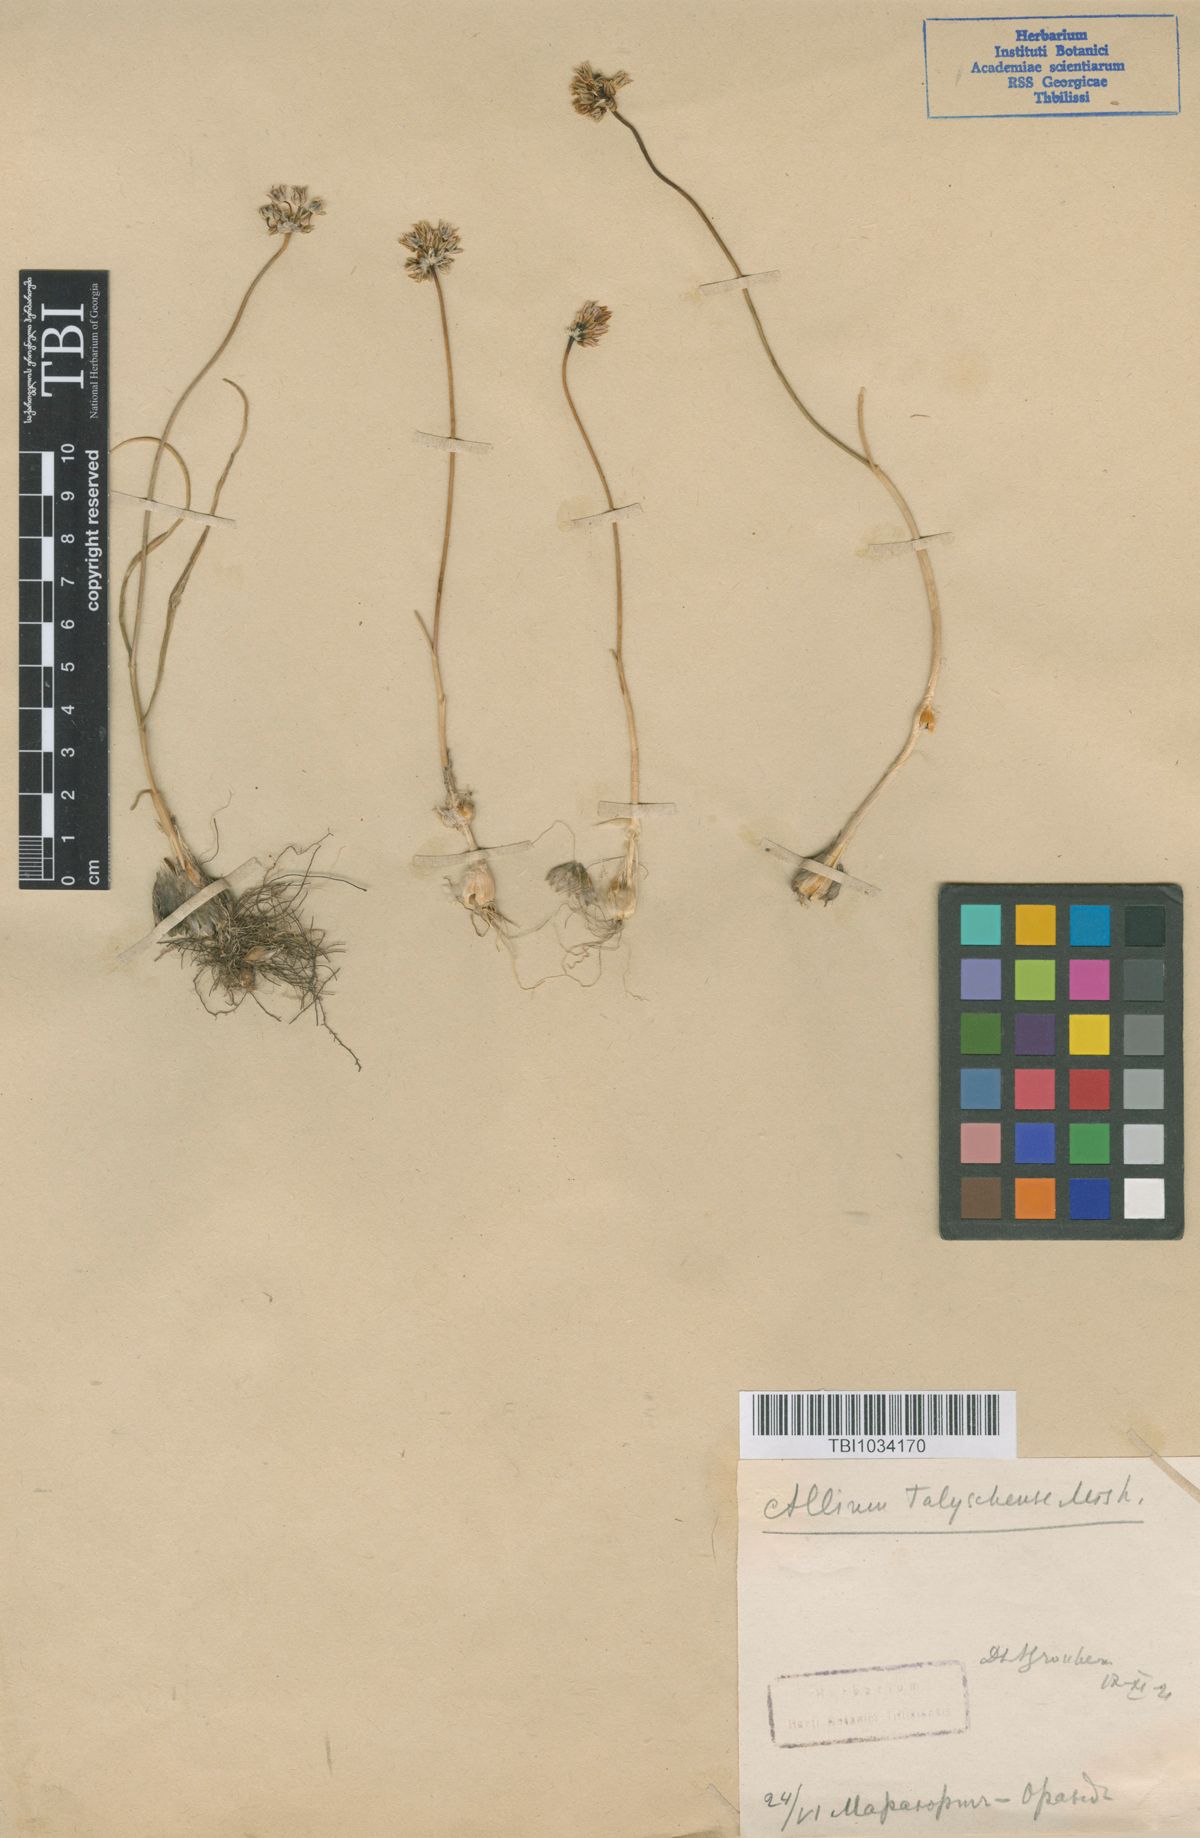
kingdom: Plantae
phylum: Tracheophyta
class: Liliopsida
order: Asparagales
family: Amaryllidaceae
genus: Allium
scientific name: Allium talyschense
